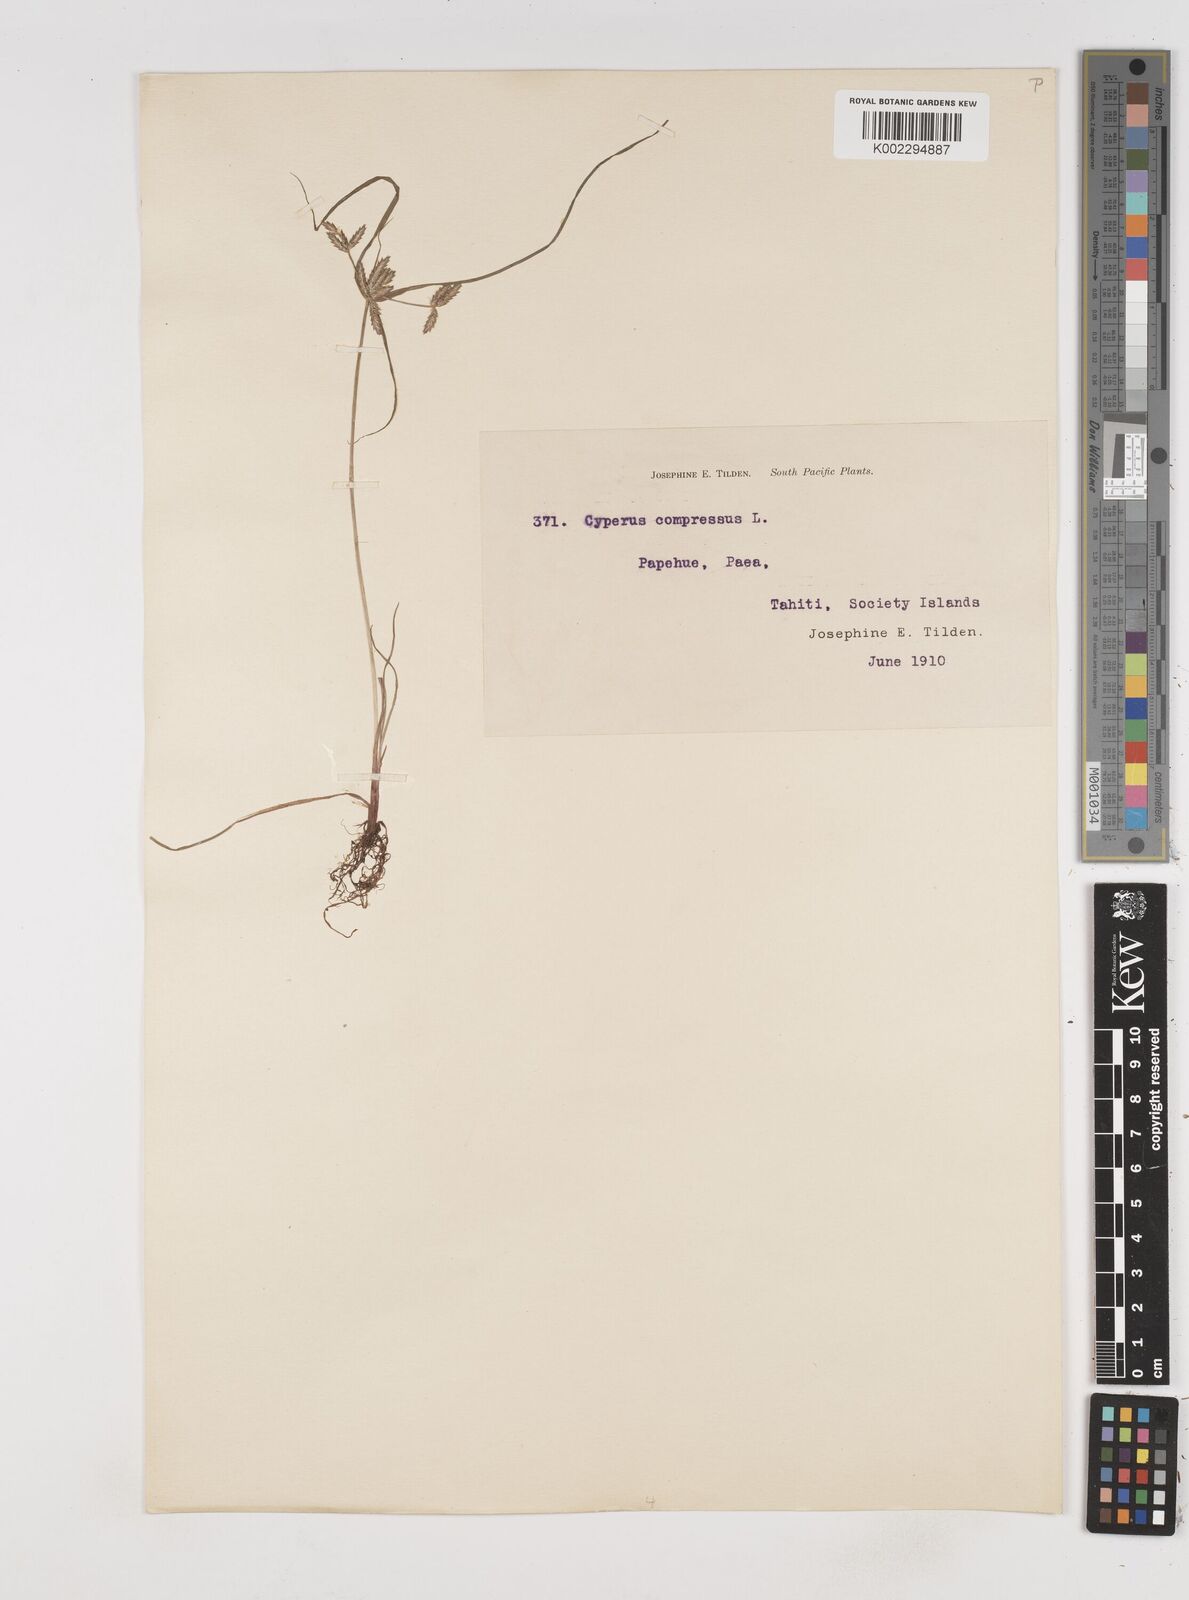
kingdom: Plantae
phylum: Tracheophyta
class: Liliopsida
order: Poales
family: Cyperaceae
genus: Cyperus
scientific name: Cyperus compressus
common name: Poorland flatsedge
